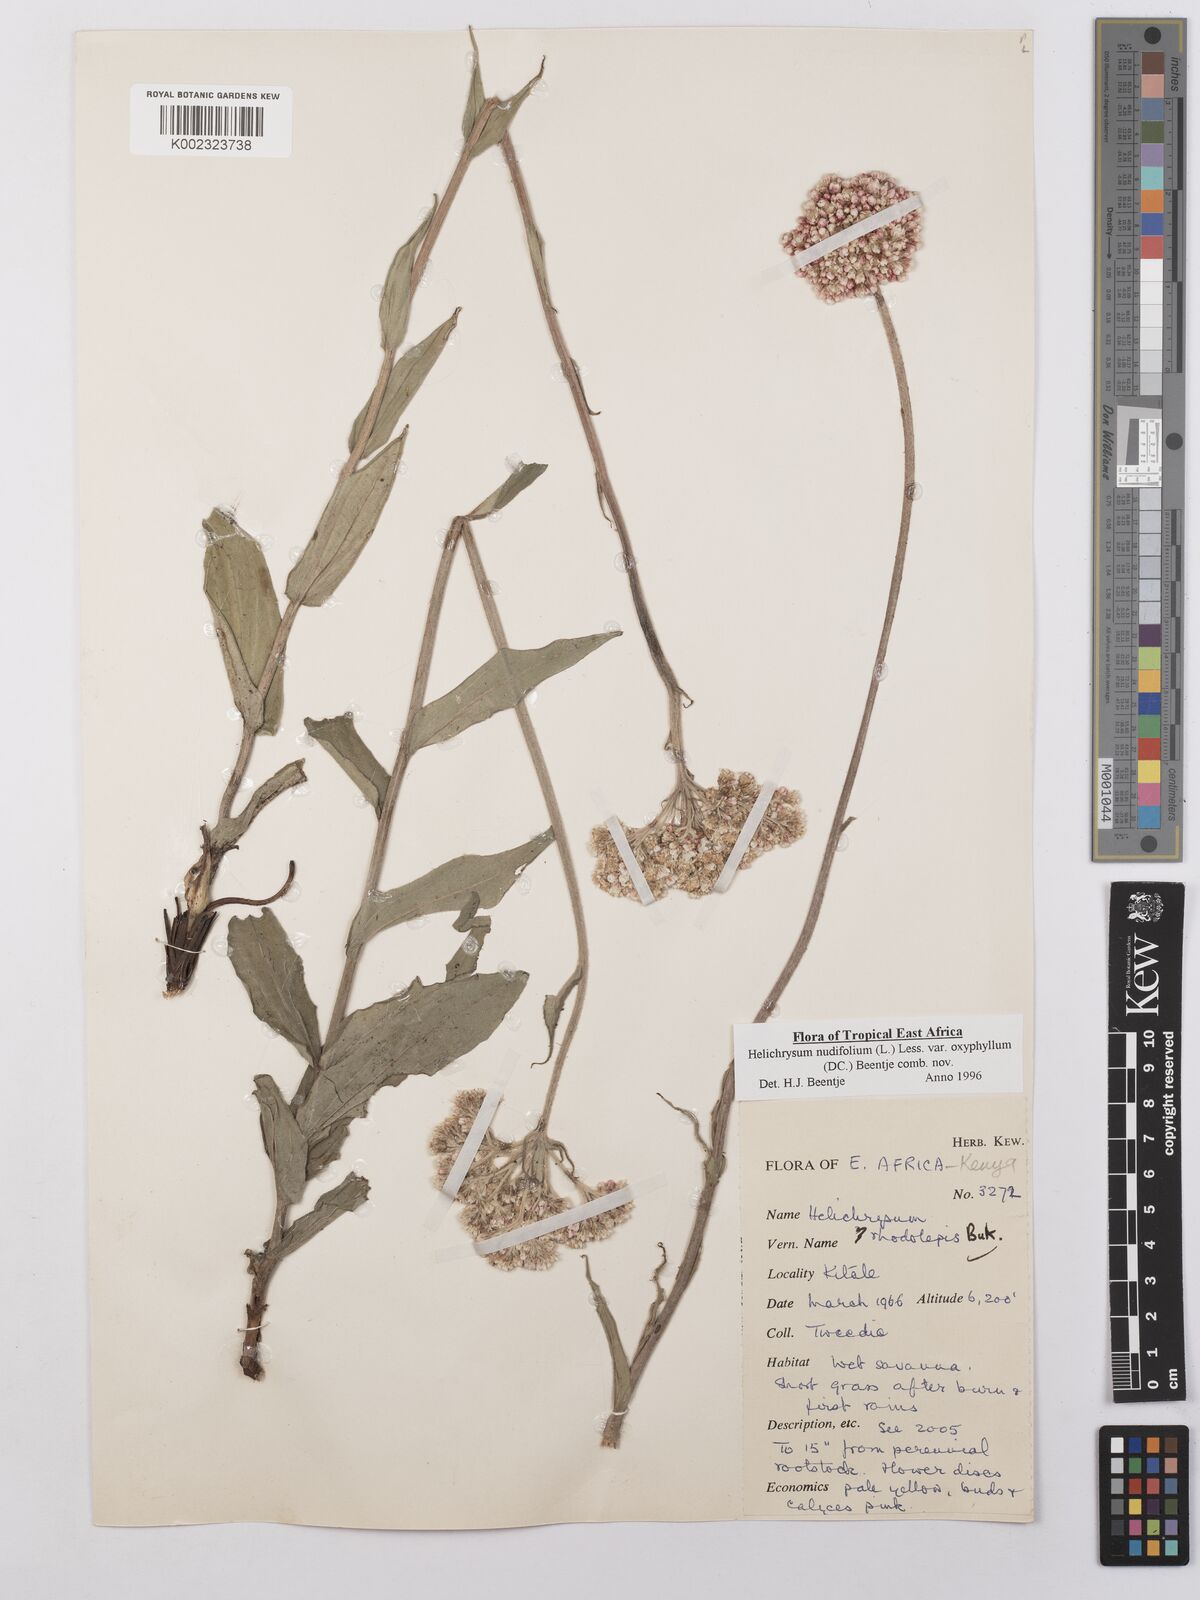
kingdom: Plantae
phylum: Tracheophyta
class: Magnoliopsida
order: Asterales
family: Asteraceae
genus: Helichrysum
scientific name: Helichrysum nudifolium
